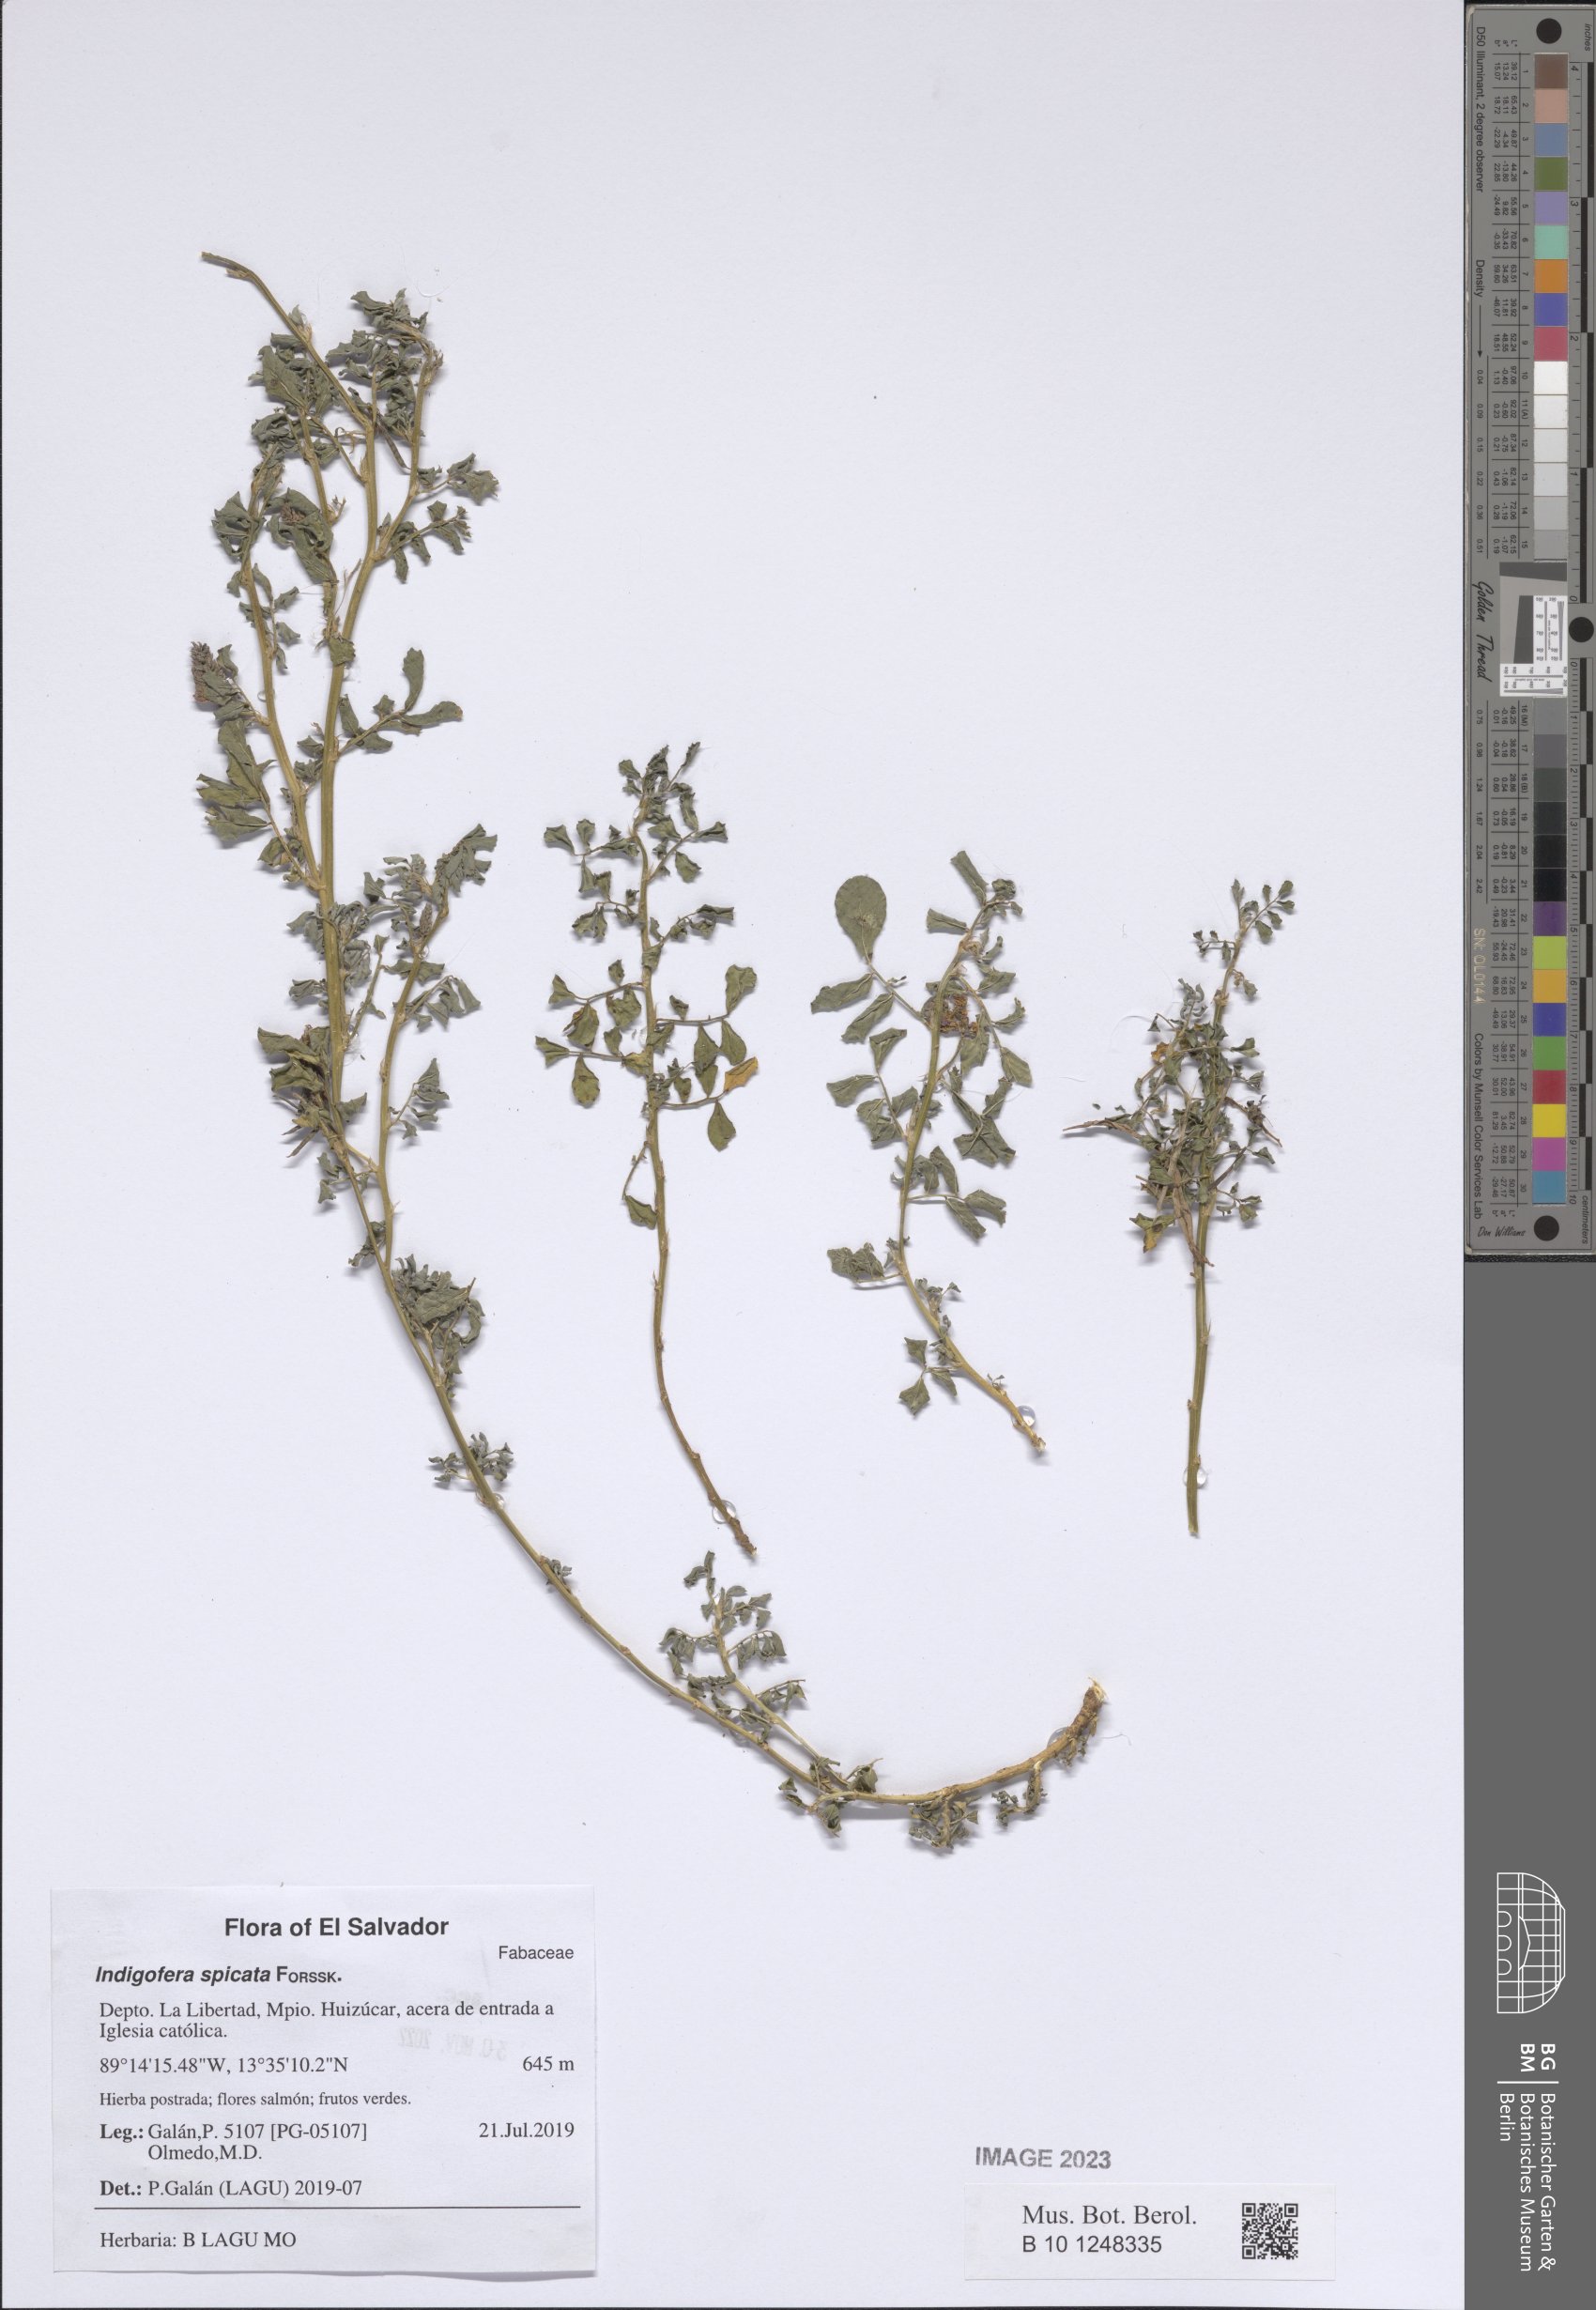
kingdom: Plantae
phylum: Tracheophyta
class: Magnoliopsida
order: Fabales
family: Fabaceae
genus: Indigofera
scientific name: Indigofera spicata
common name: Creeping indigo
